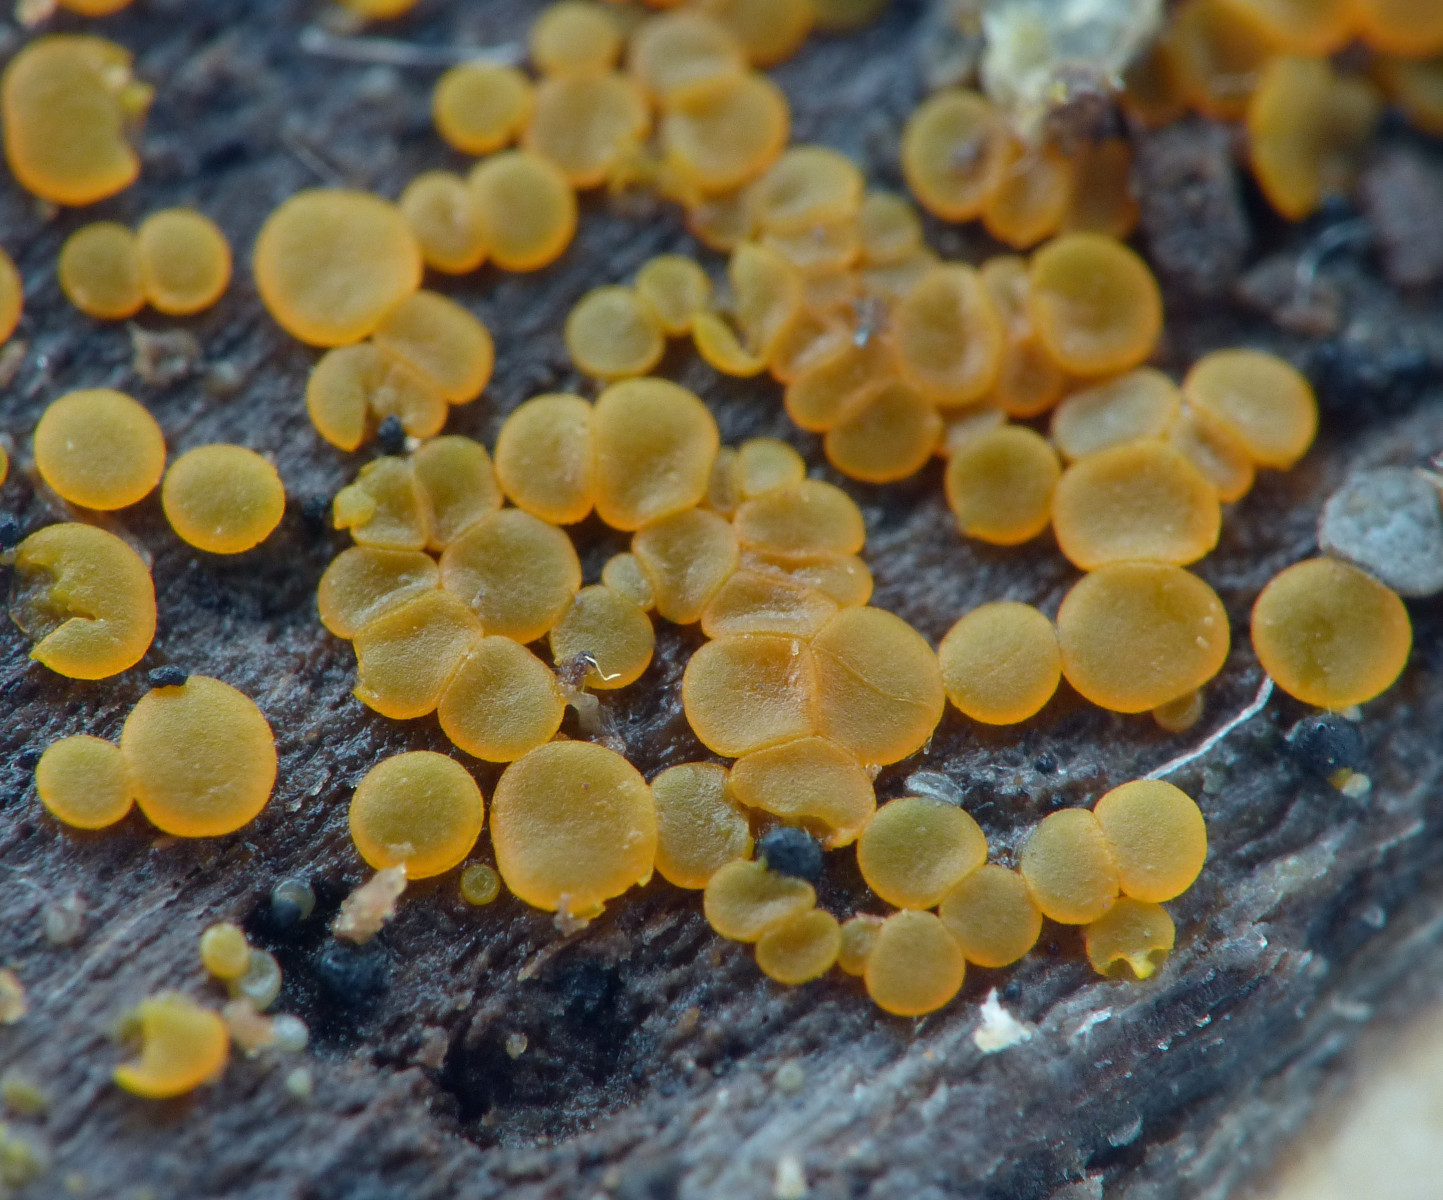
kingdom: Fungi
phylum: Ascomycota
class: Orbiliomycetes
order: Orbiliales
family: Orbiliaceae
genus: Orbilia
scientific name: Orbilia xanthostigma
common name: krumsporet voksskive
